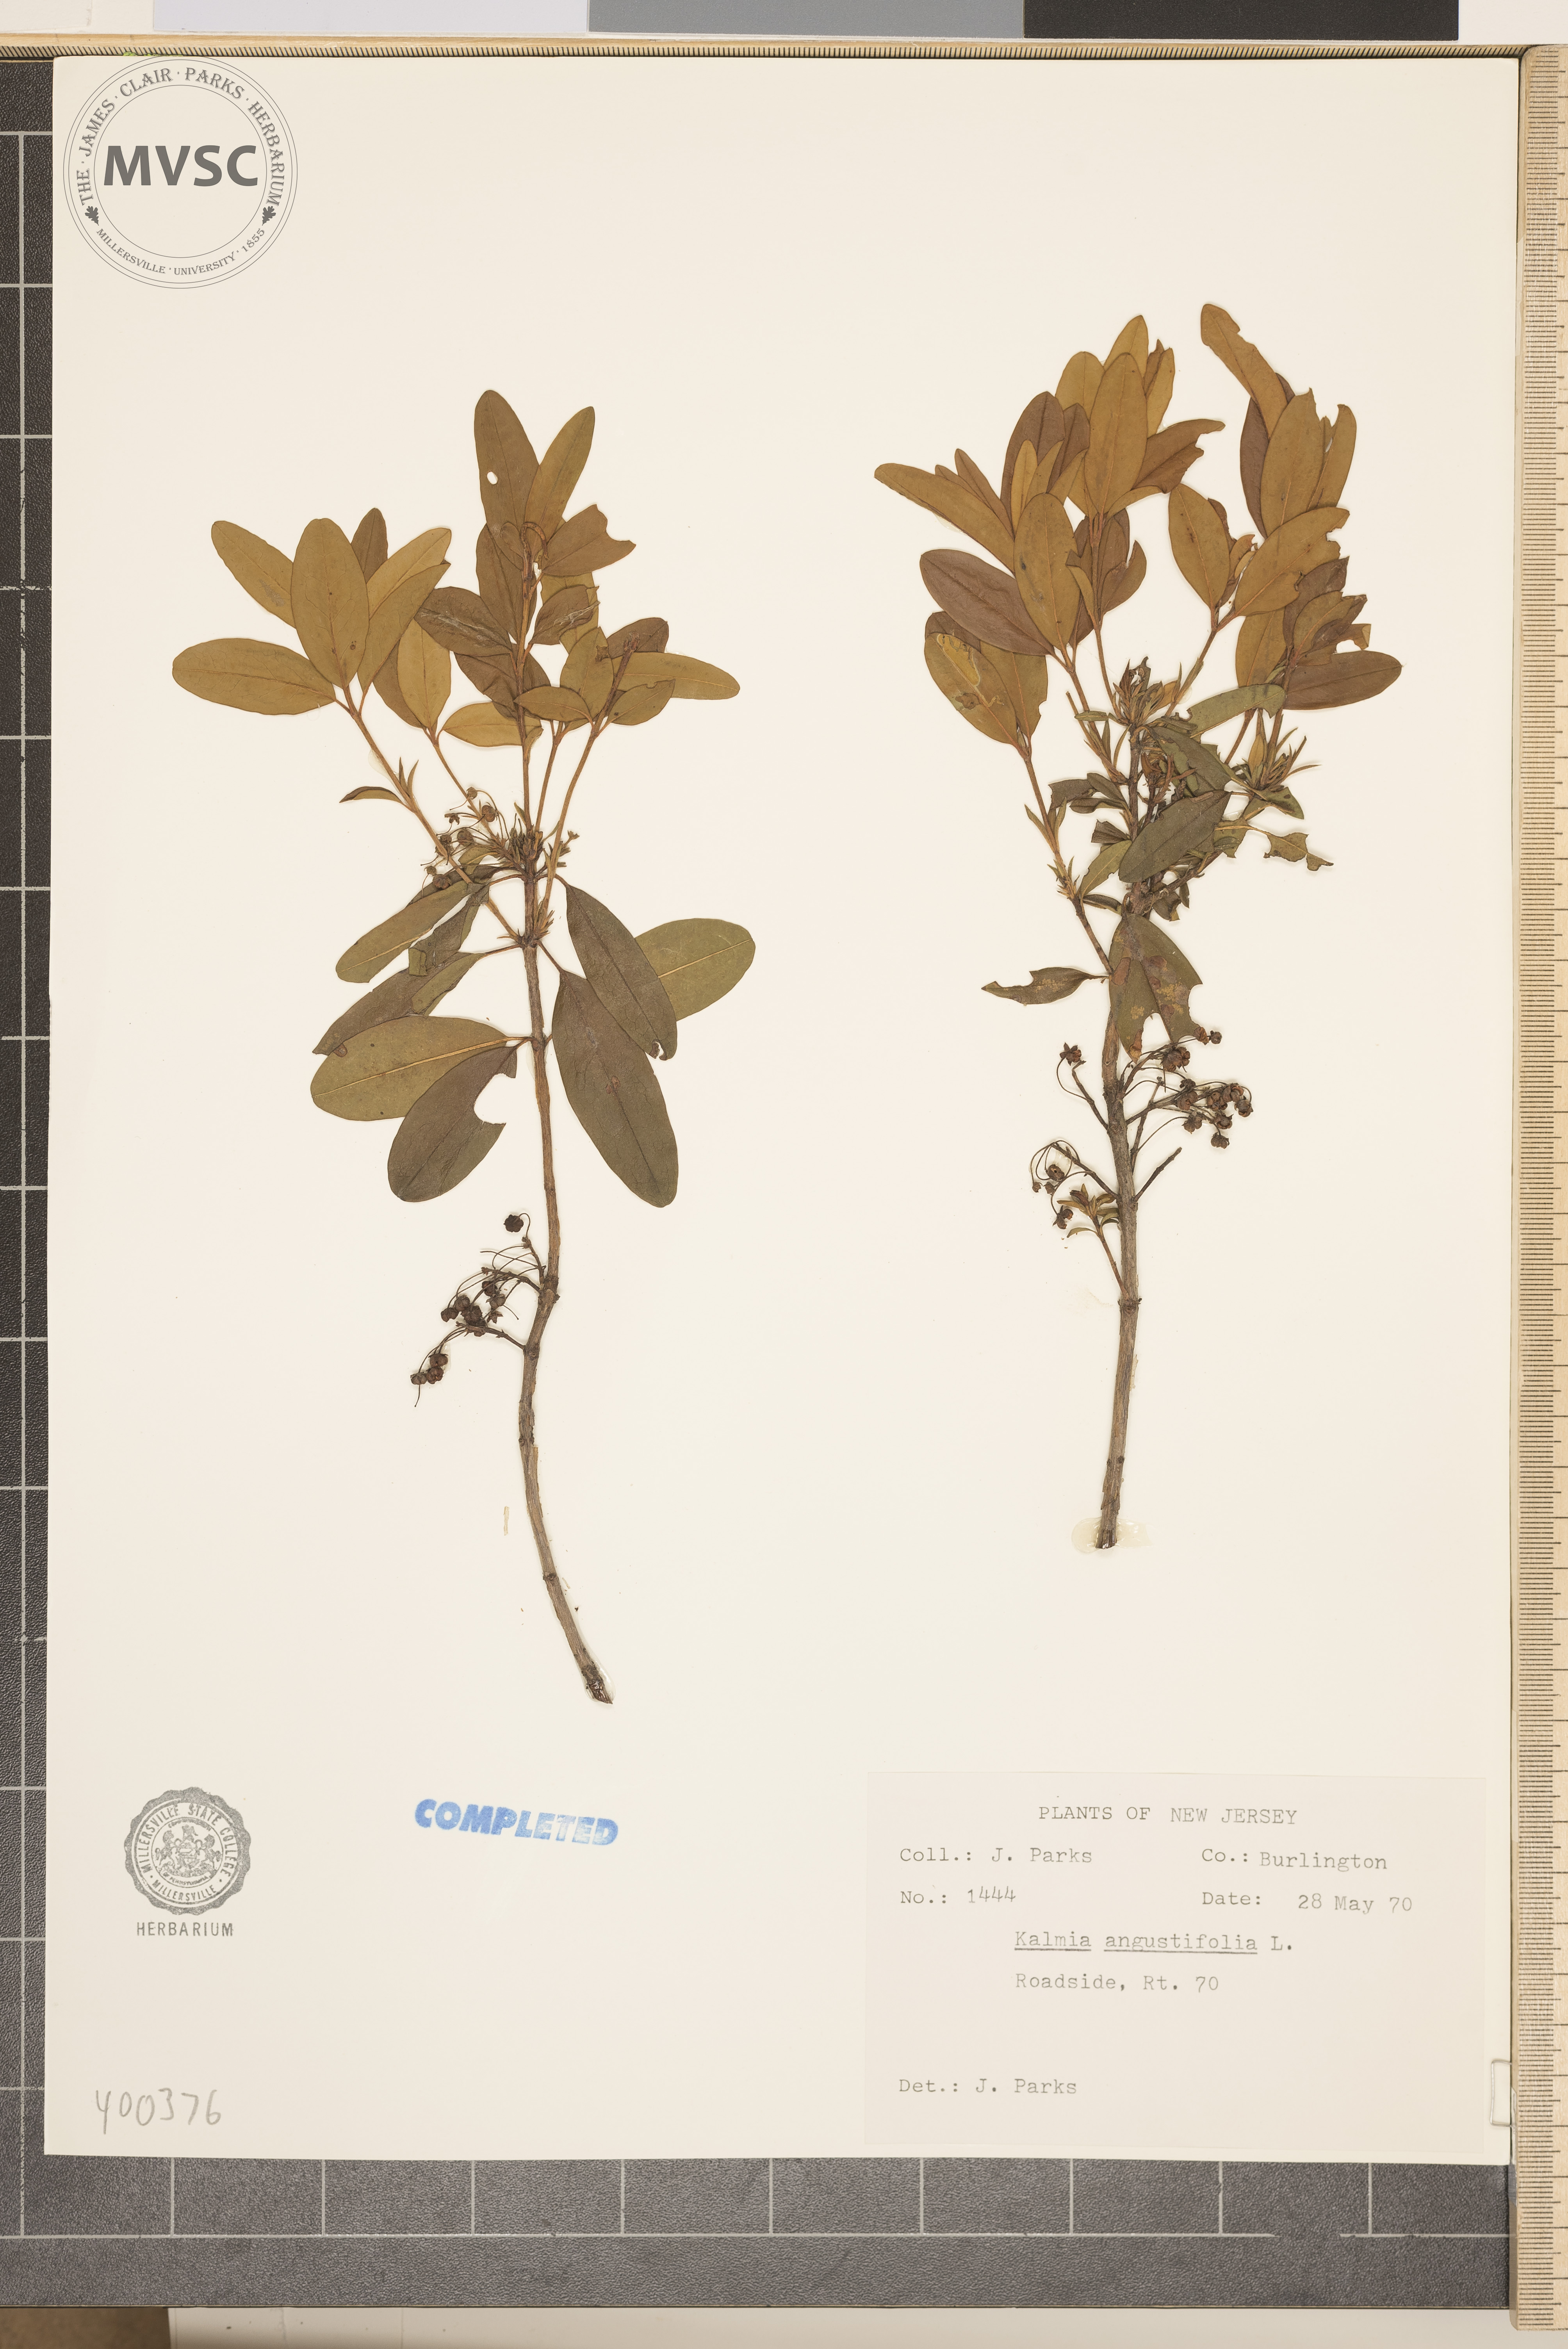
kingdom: Plantae
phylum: Tracheophyta
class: Magnoliopsida
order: Ericales
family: Ericaceae
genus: Kalmia
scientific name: Kalmia angustifolia
